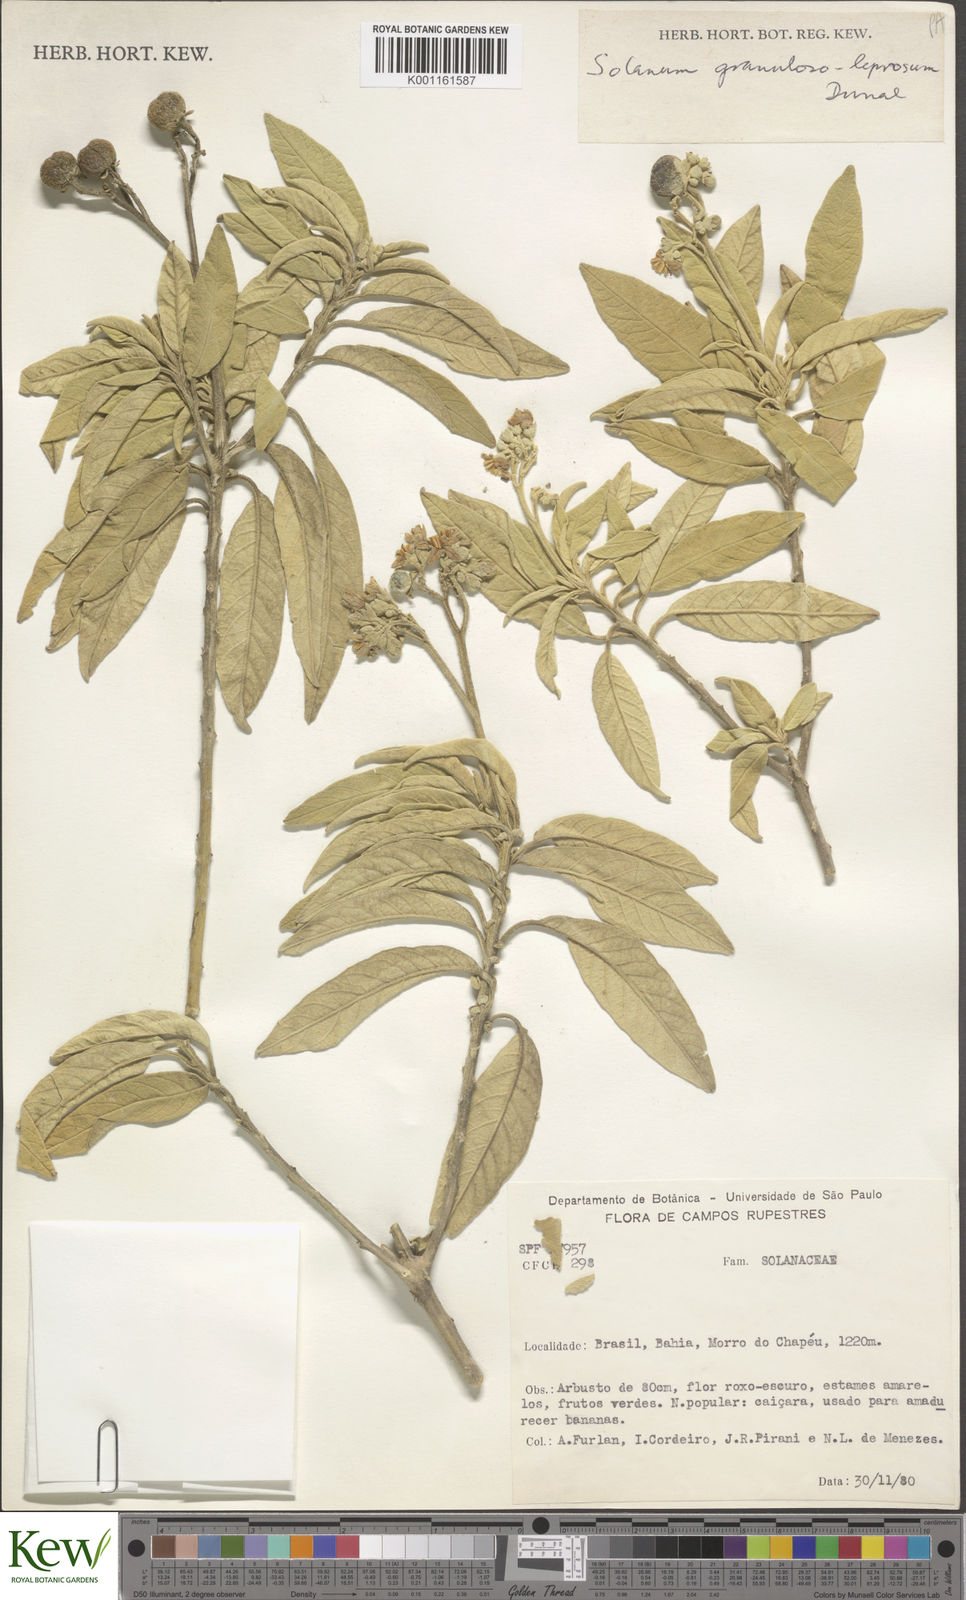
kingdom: Plantae
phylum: Tracheophyta
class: Magnoliopsida
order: Solanales
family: Solanaceae
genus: Solanum
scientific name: Solanum granulosoleprosum
